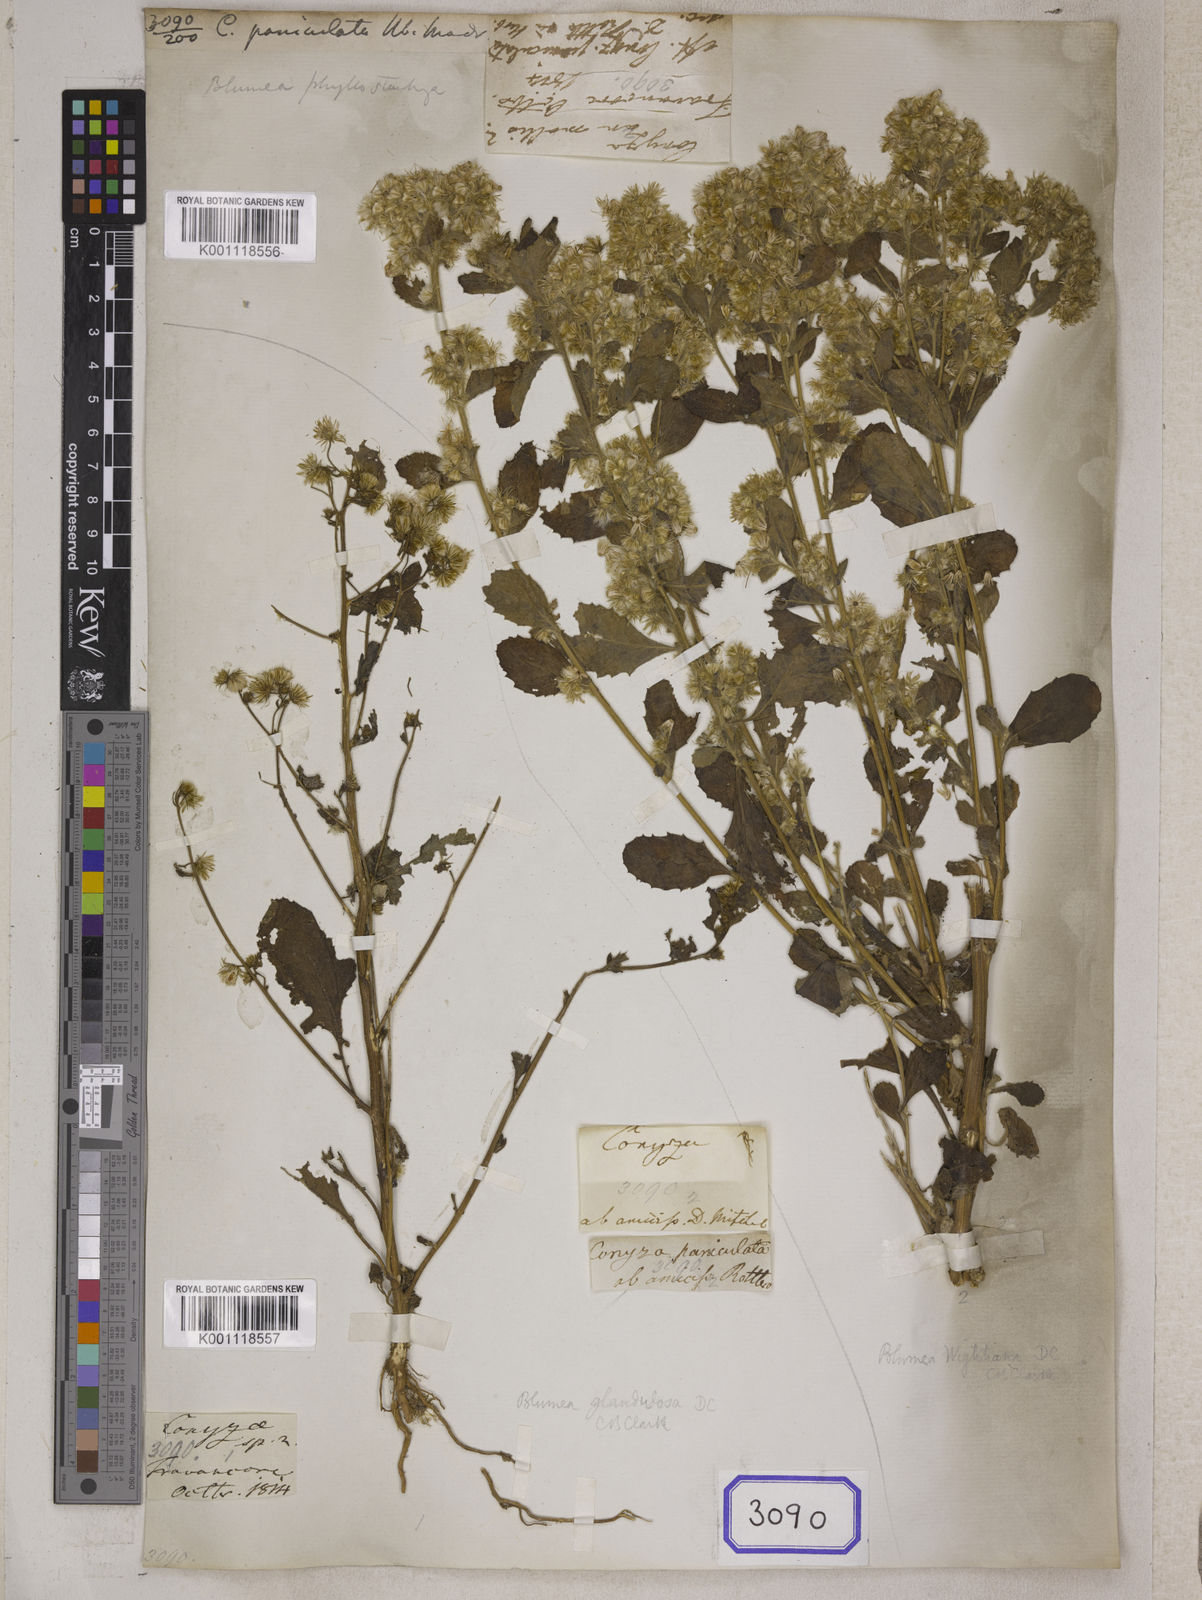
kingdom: Plantae
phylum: Tracheophyta
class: Magnoliopsida
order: Asterales
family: Asteraceae
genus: Blumea
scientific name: Blumea axillaris
